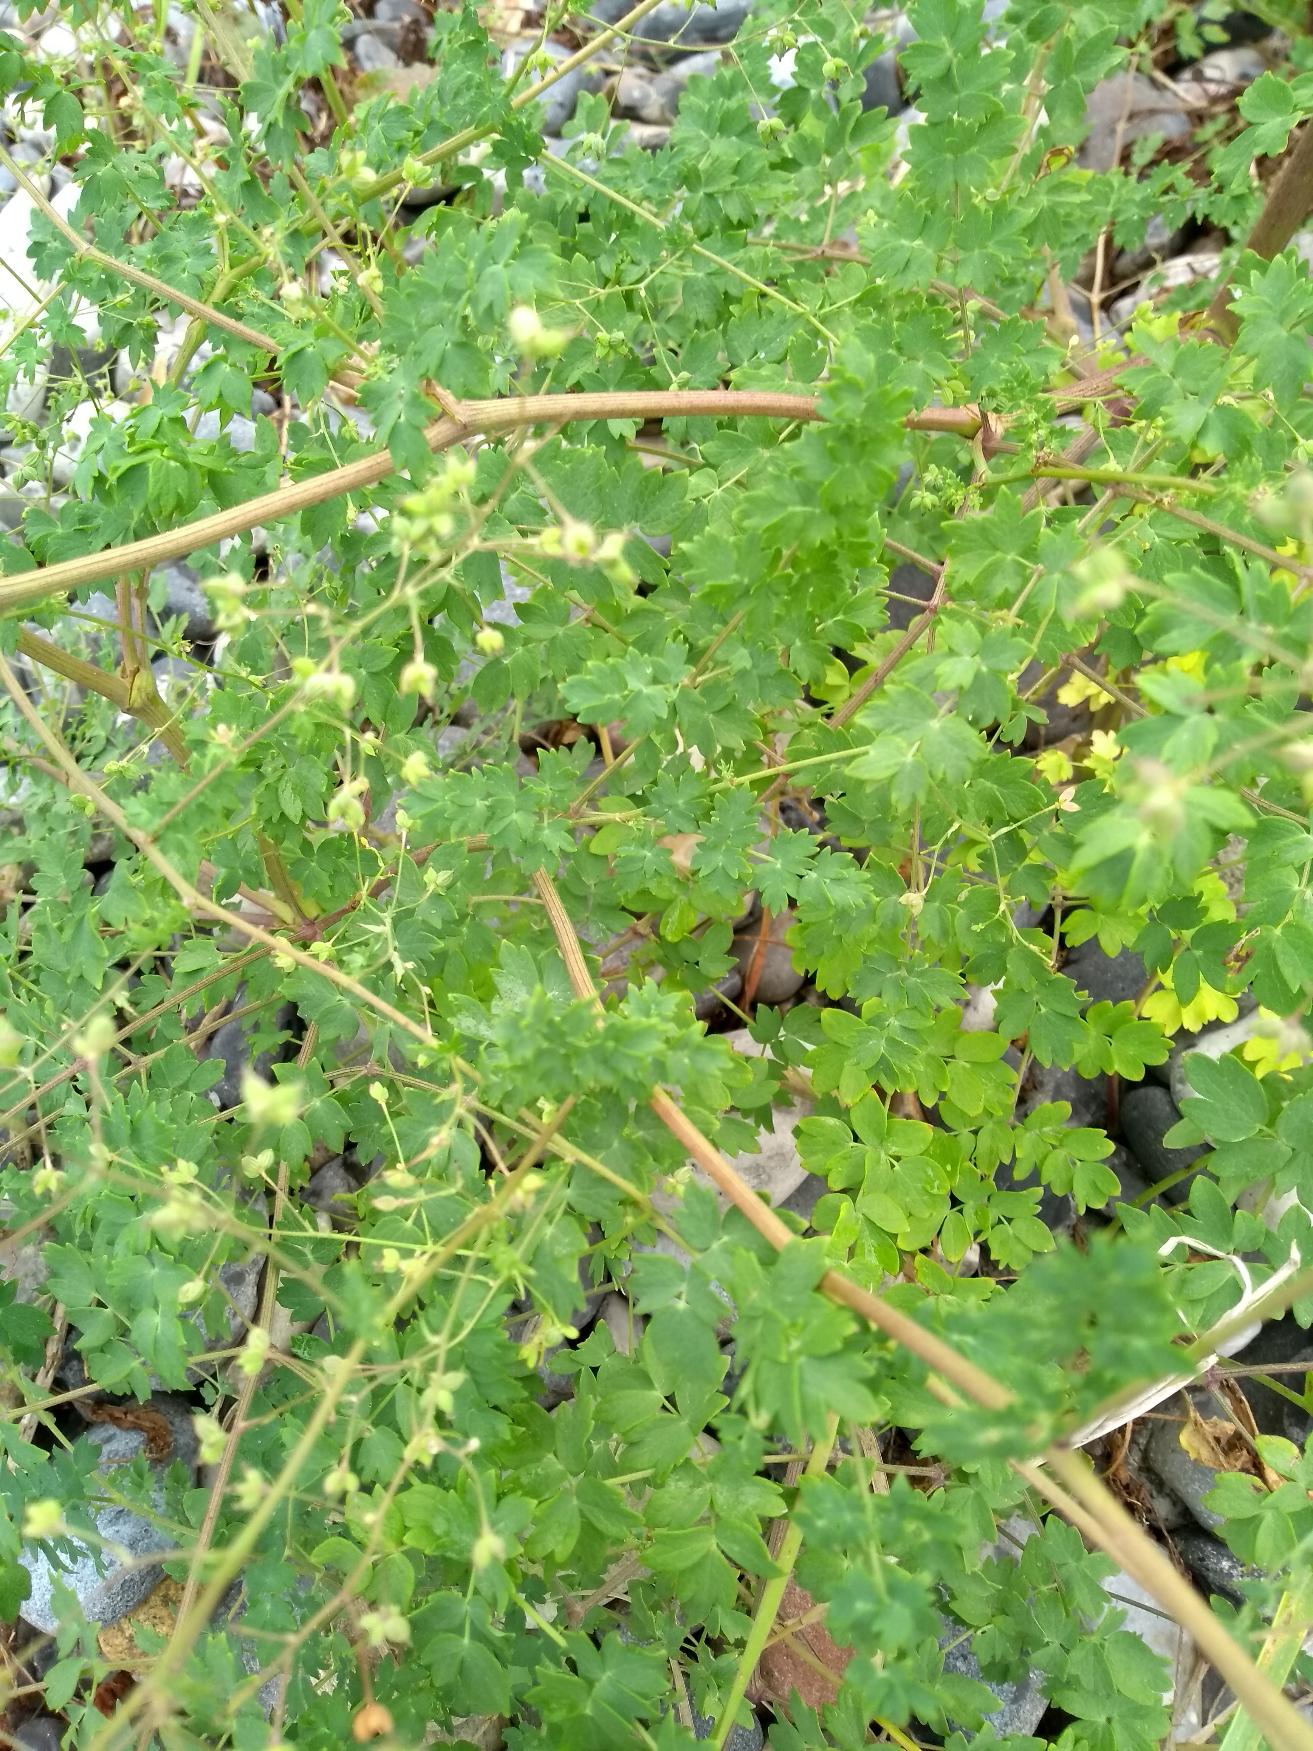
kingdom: Plantae
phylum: Tracheophyta
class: Magnoliopsida
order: Ranunculales
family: Ranunculaceae
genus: Thalictrum
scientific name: Thalictrum minus
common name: Liden frøstjerne
